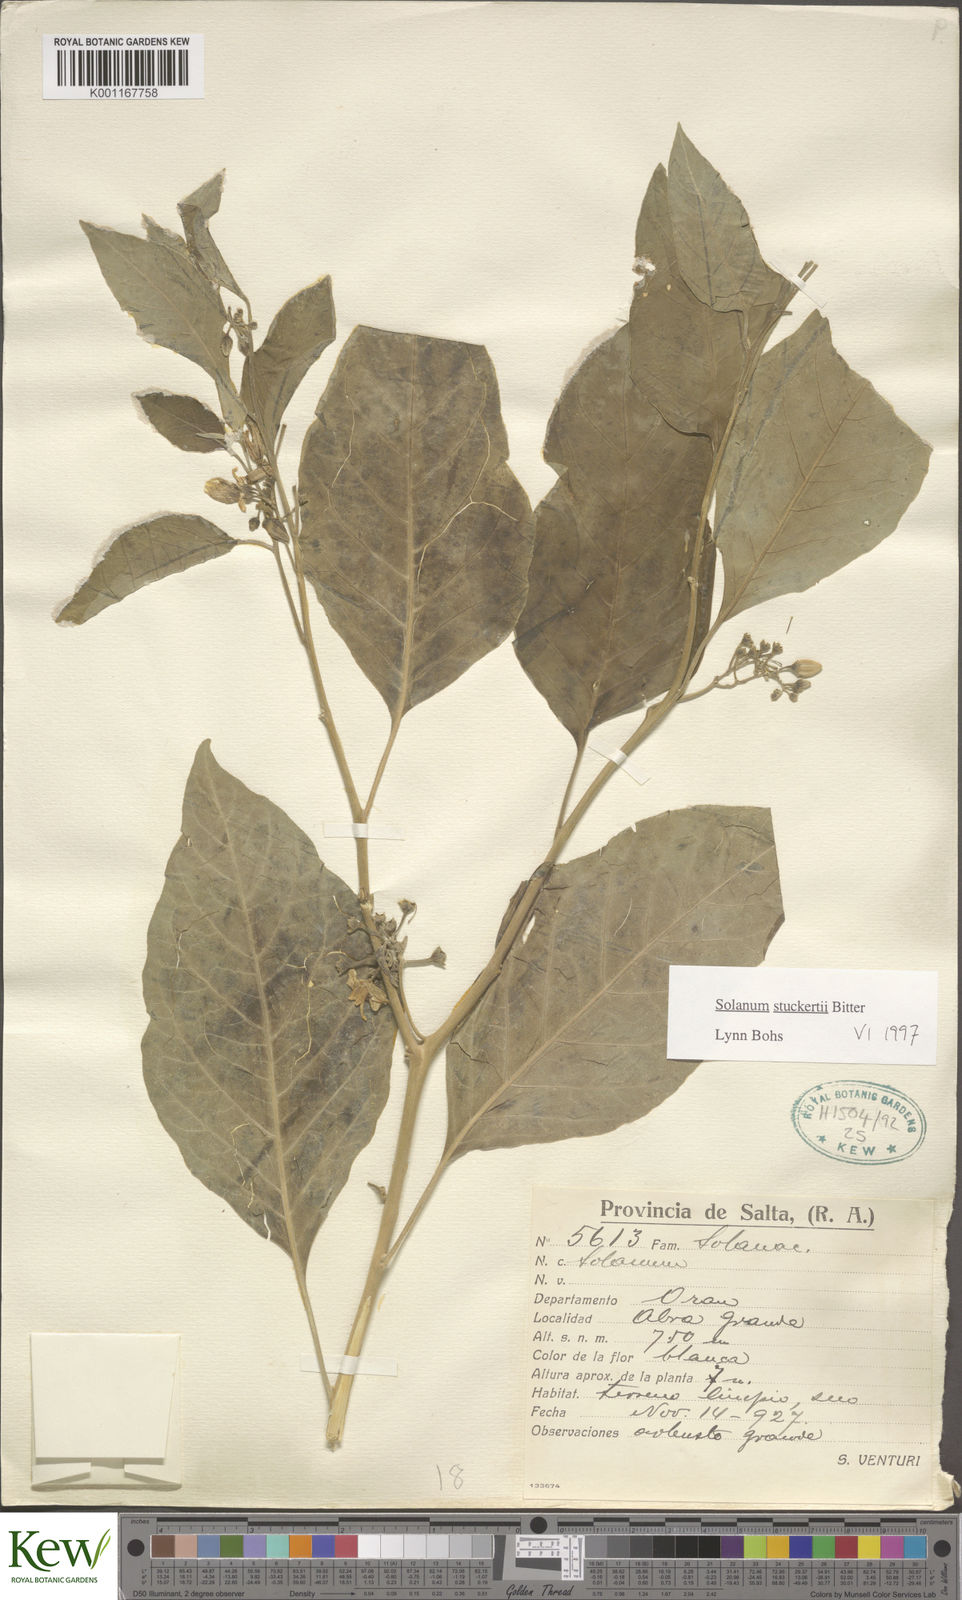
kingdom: Plantae
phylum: Tracheophyta
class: Magnoliopsida
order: Solanales
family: Solanaceae
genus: Solanum
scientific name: Solanum stuckertii
